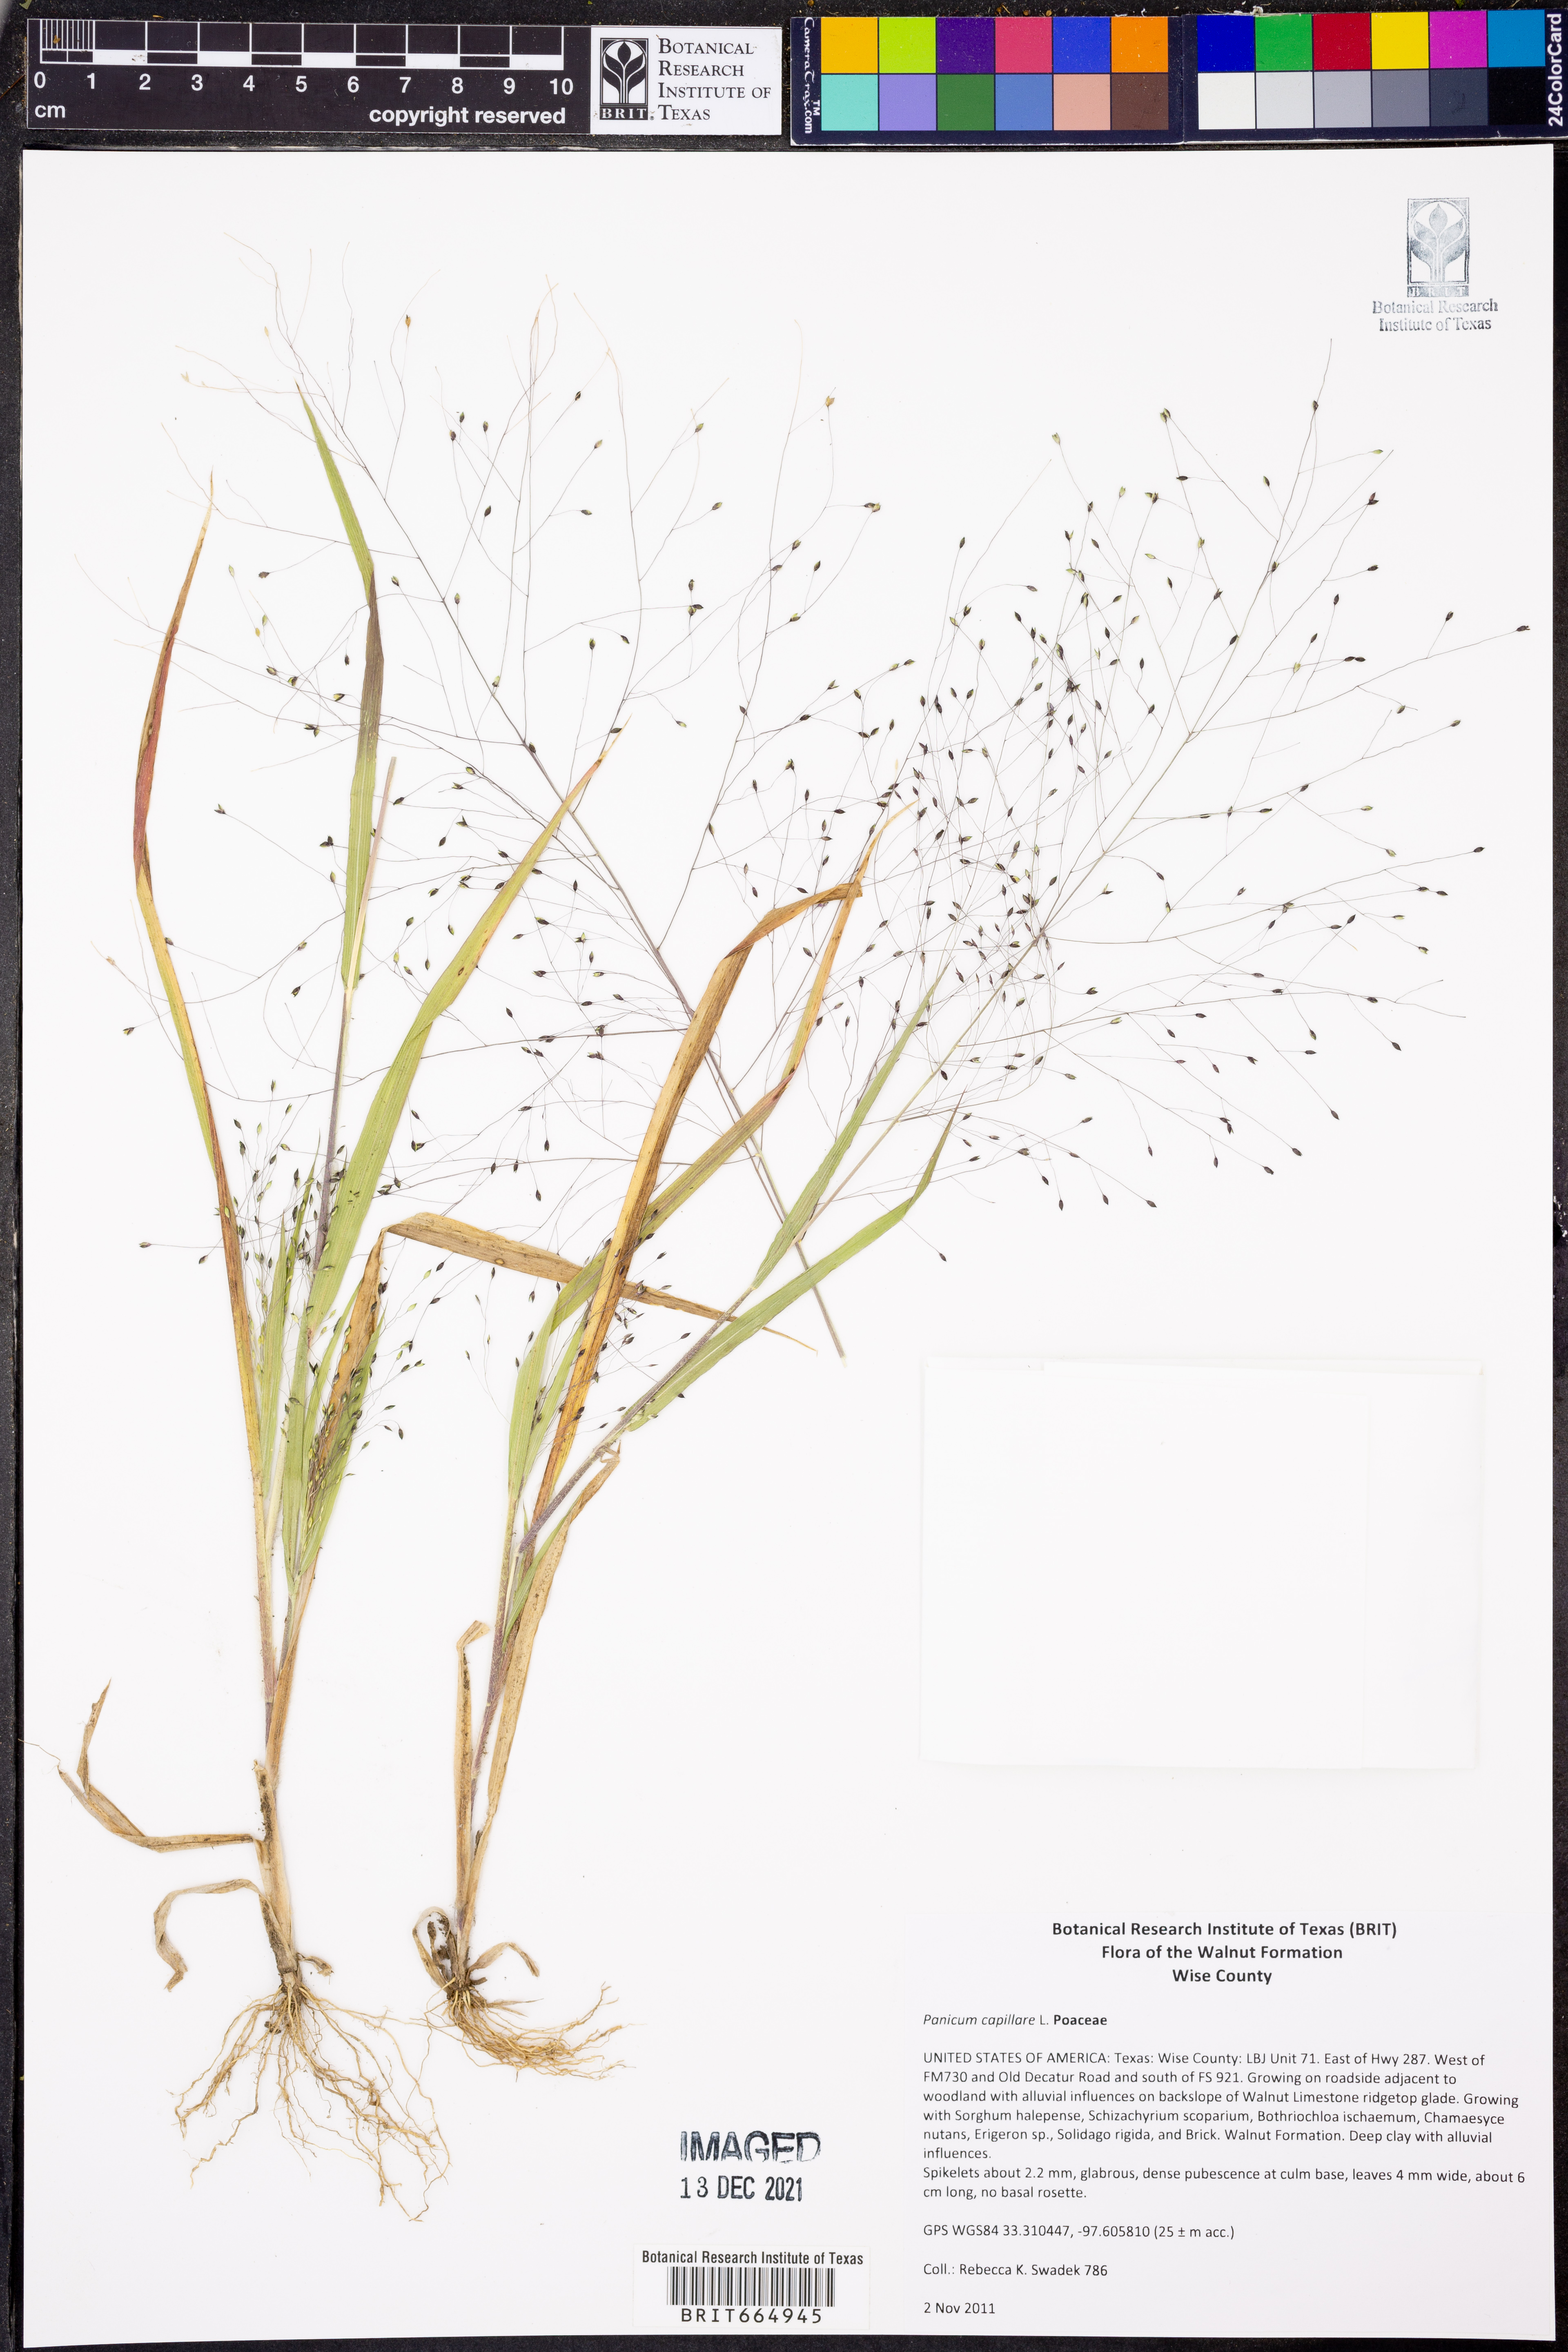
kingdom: Plantae
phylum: Tracheophyta
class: Liliopsida
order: Poales
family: Poaceae
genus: Panicum
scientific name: Panicum capillare
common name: Witch-grass
